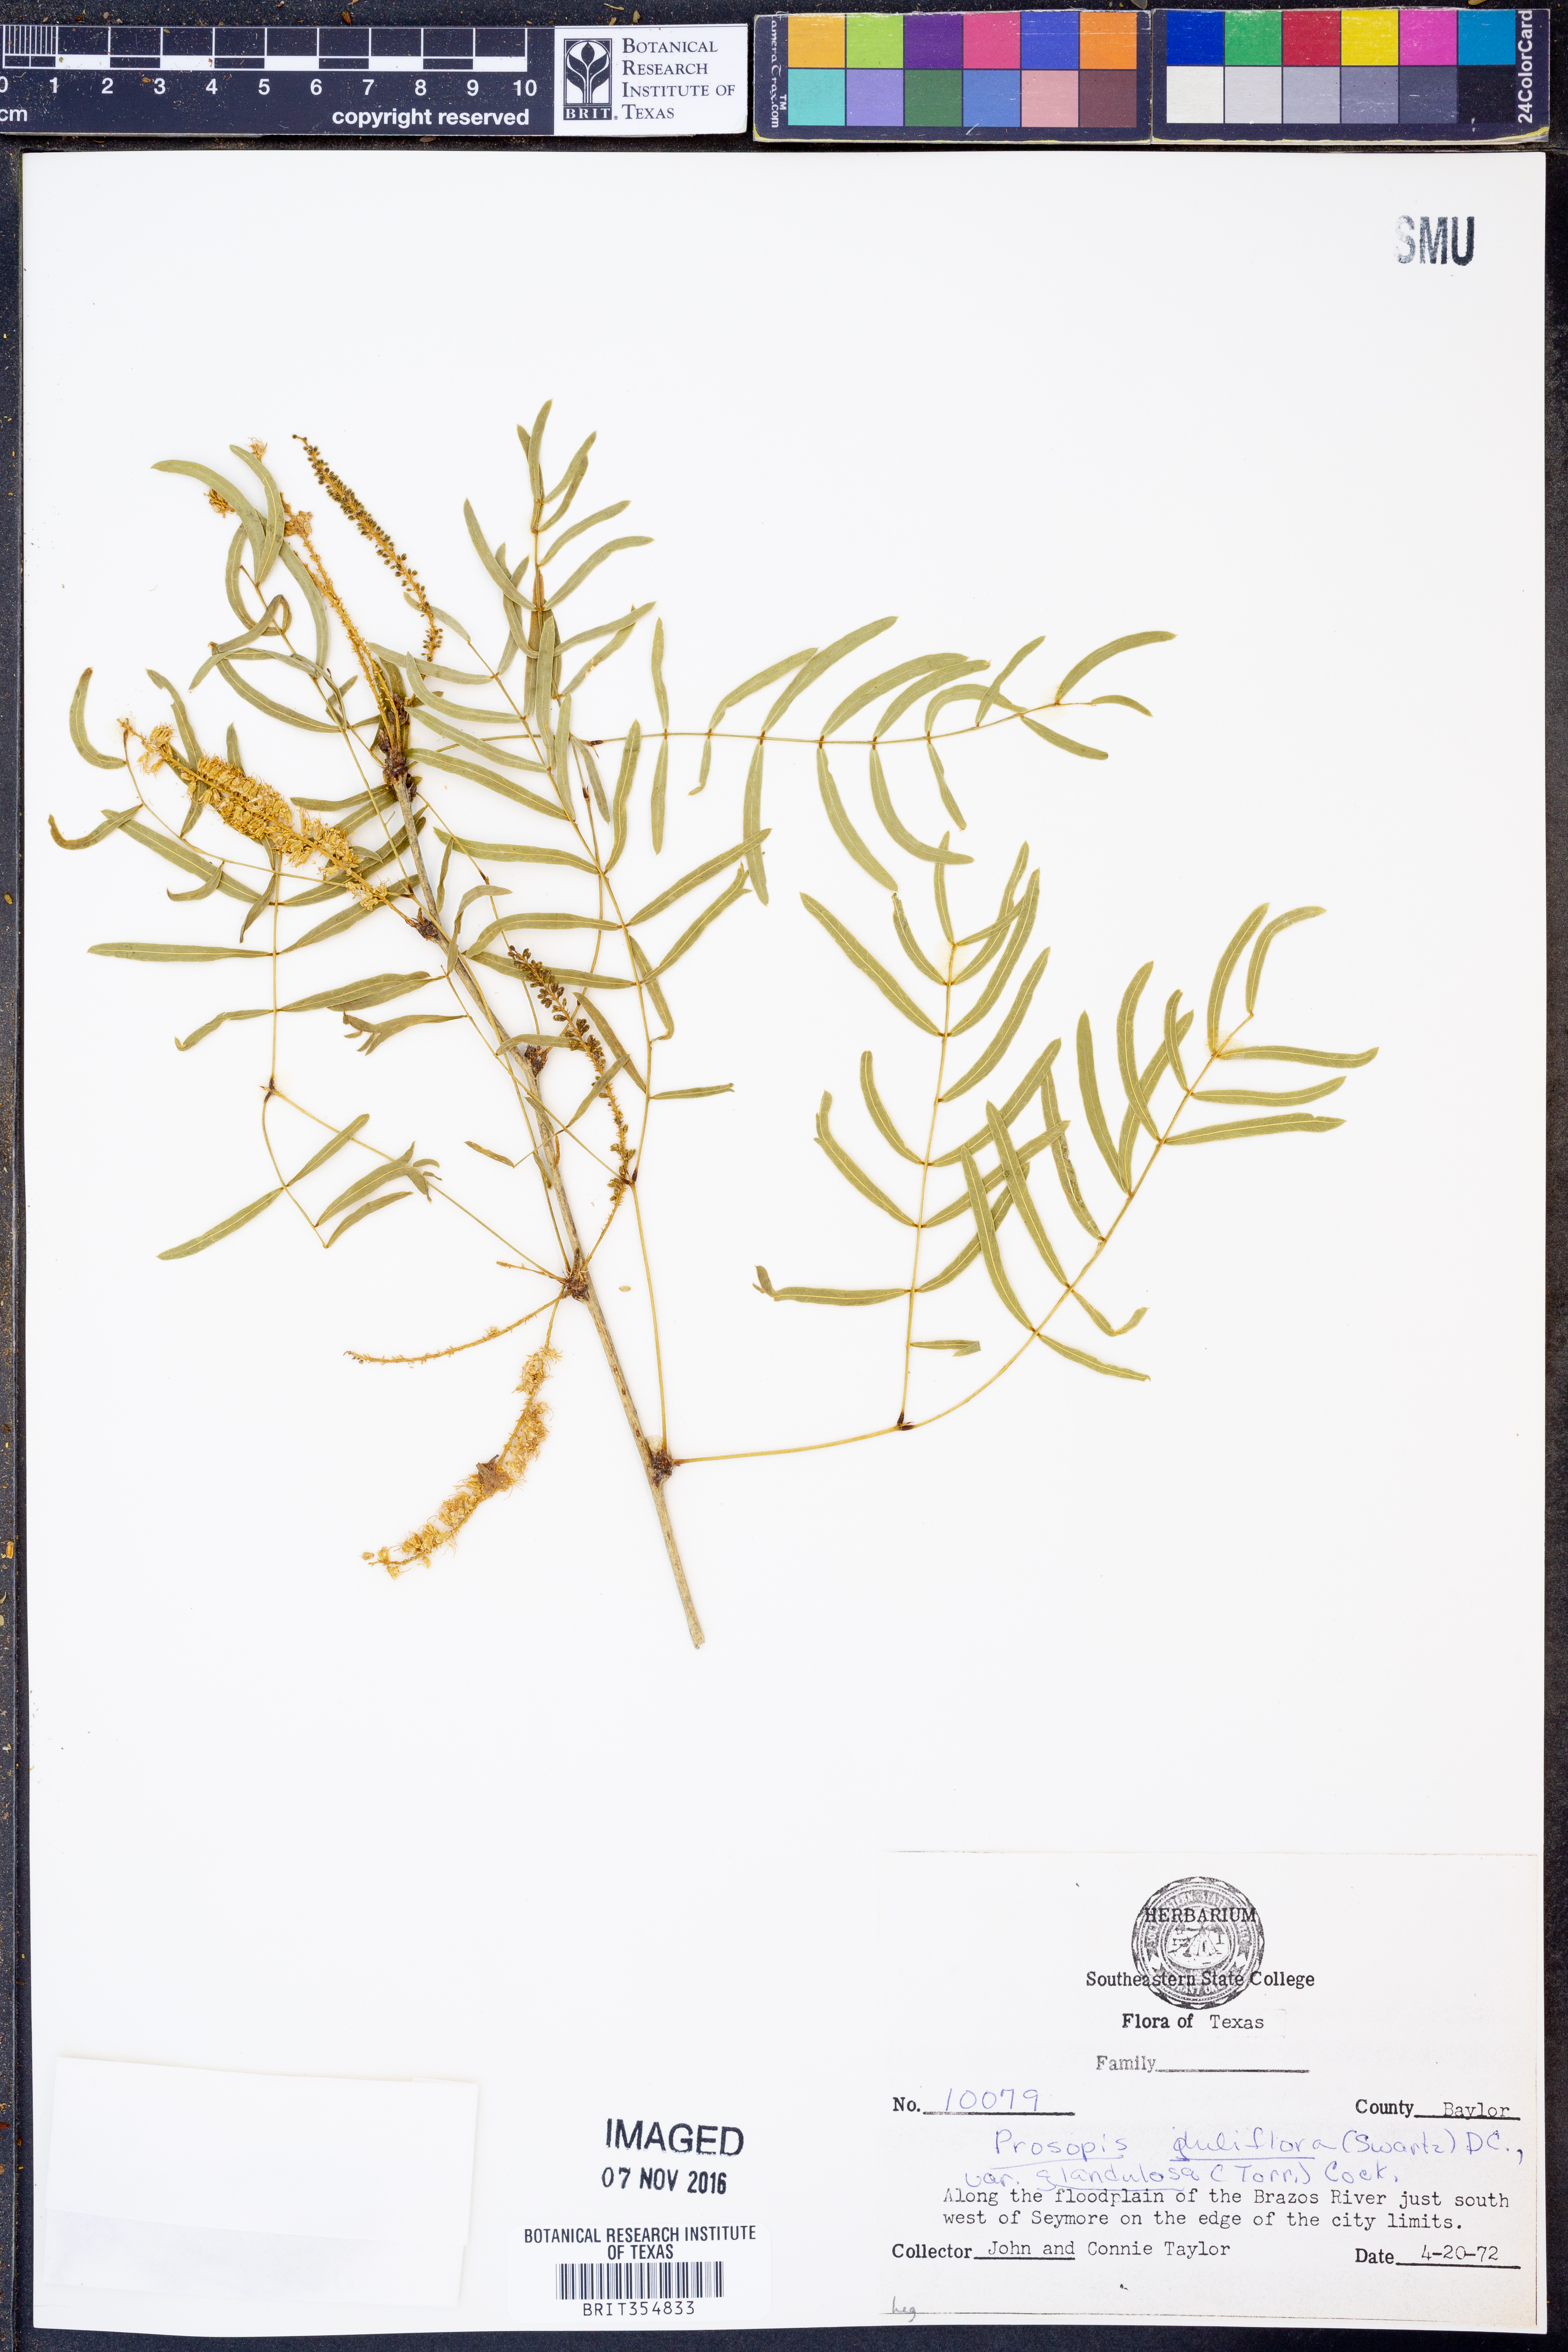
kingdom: Plantae
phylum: Tracheophyta
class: Magnoliopsida
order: Fabales
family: Fabaceae
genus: Prosopis
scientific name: Prosopis glandulosa
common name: Honey mesquite
